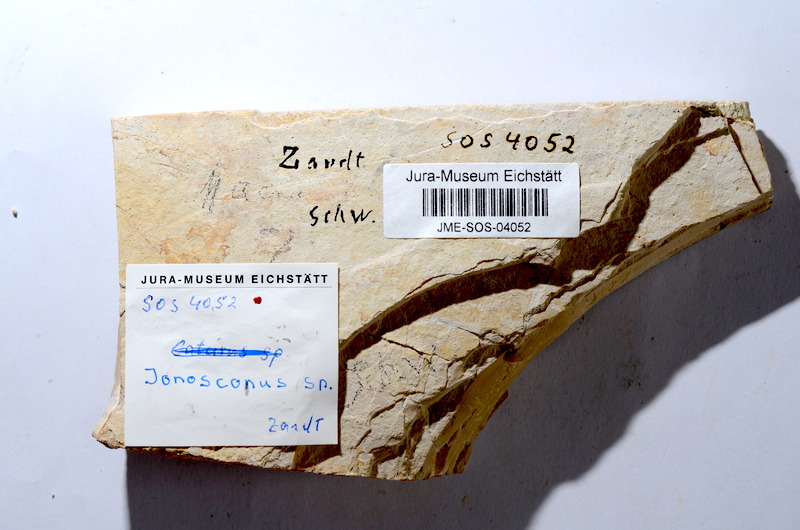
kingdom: Animalia
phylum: Chordata
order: Amiiformes
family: Ionoscopidae
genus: Ionoscopus
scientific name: Ionoscopus
